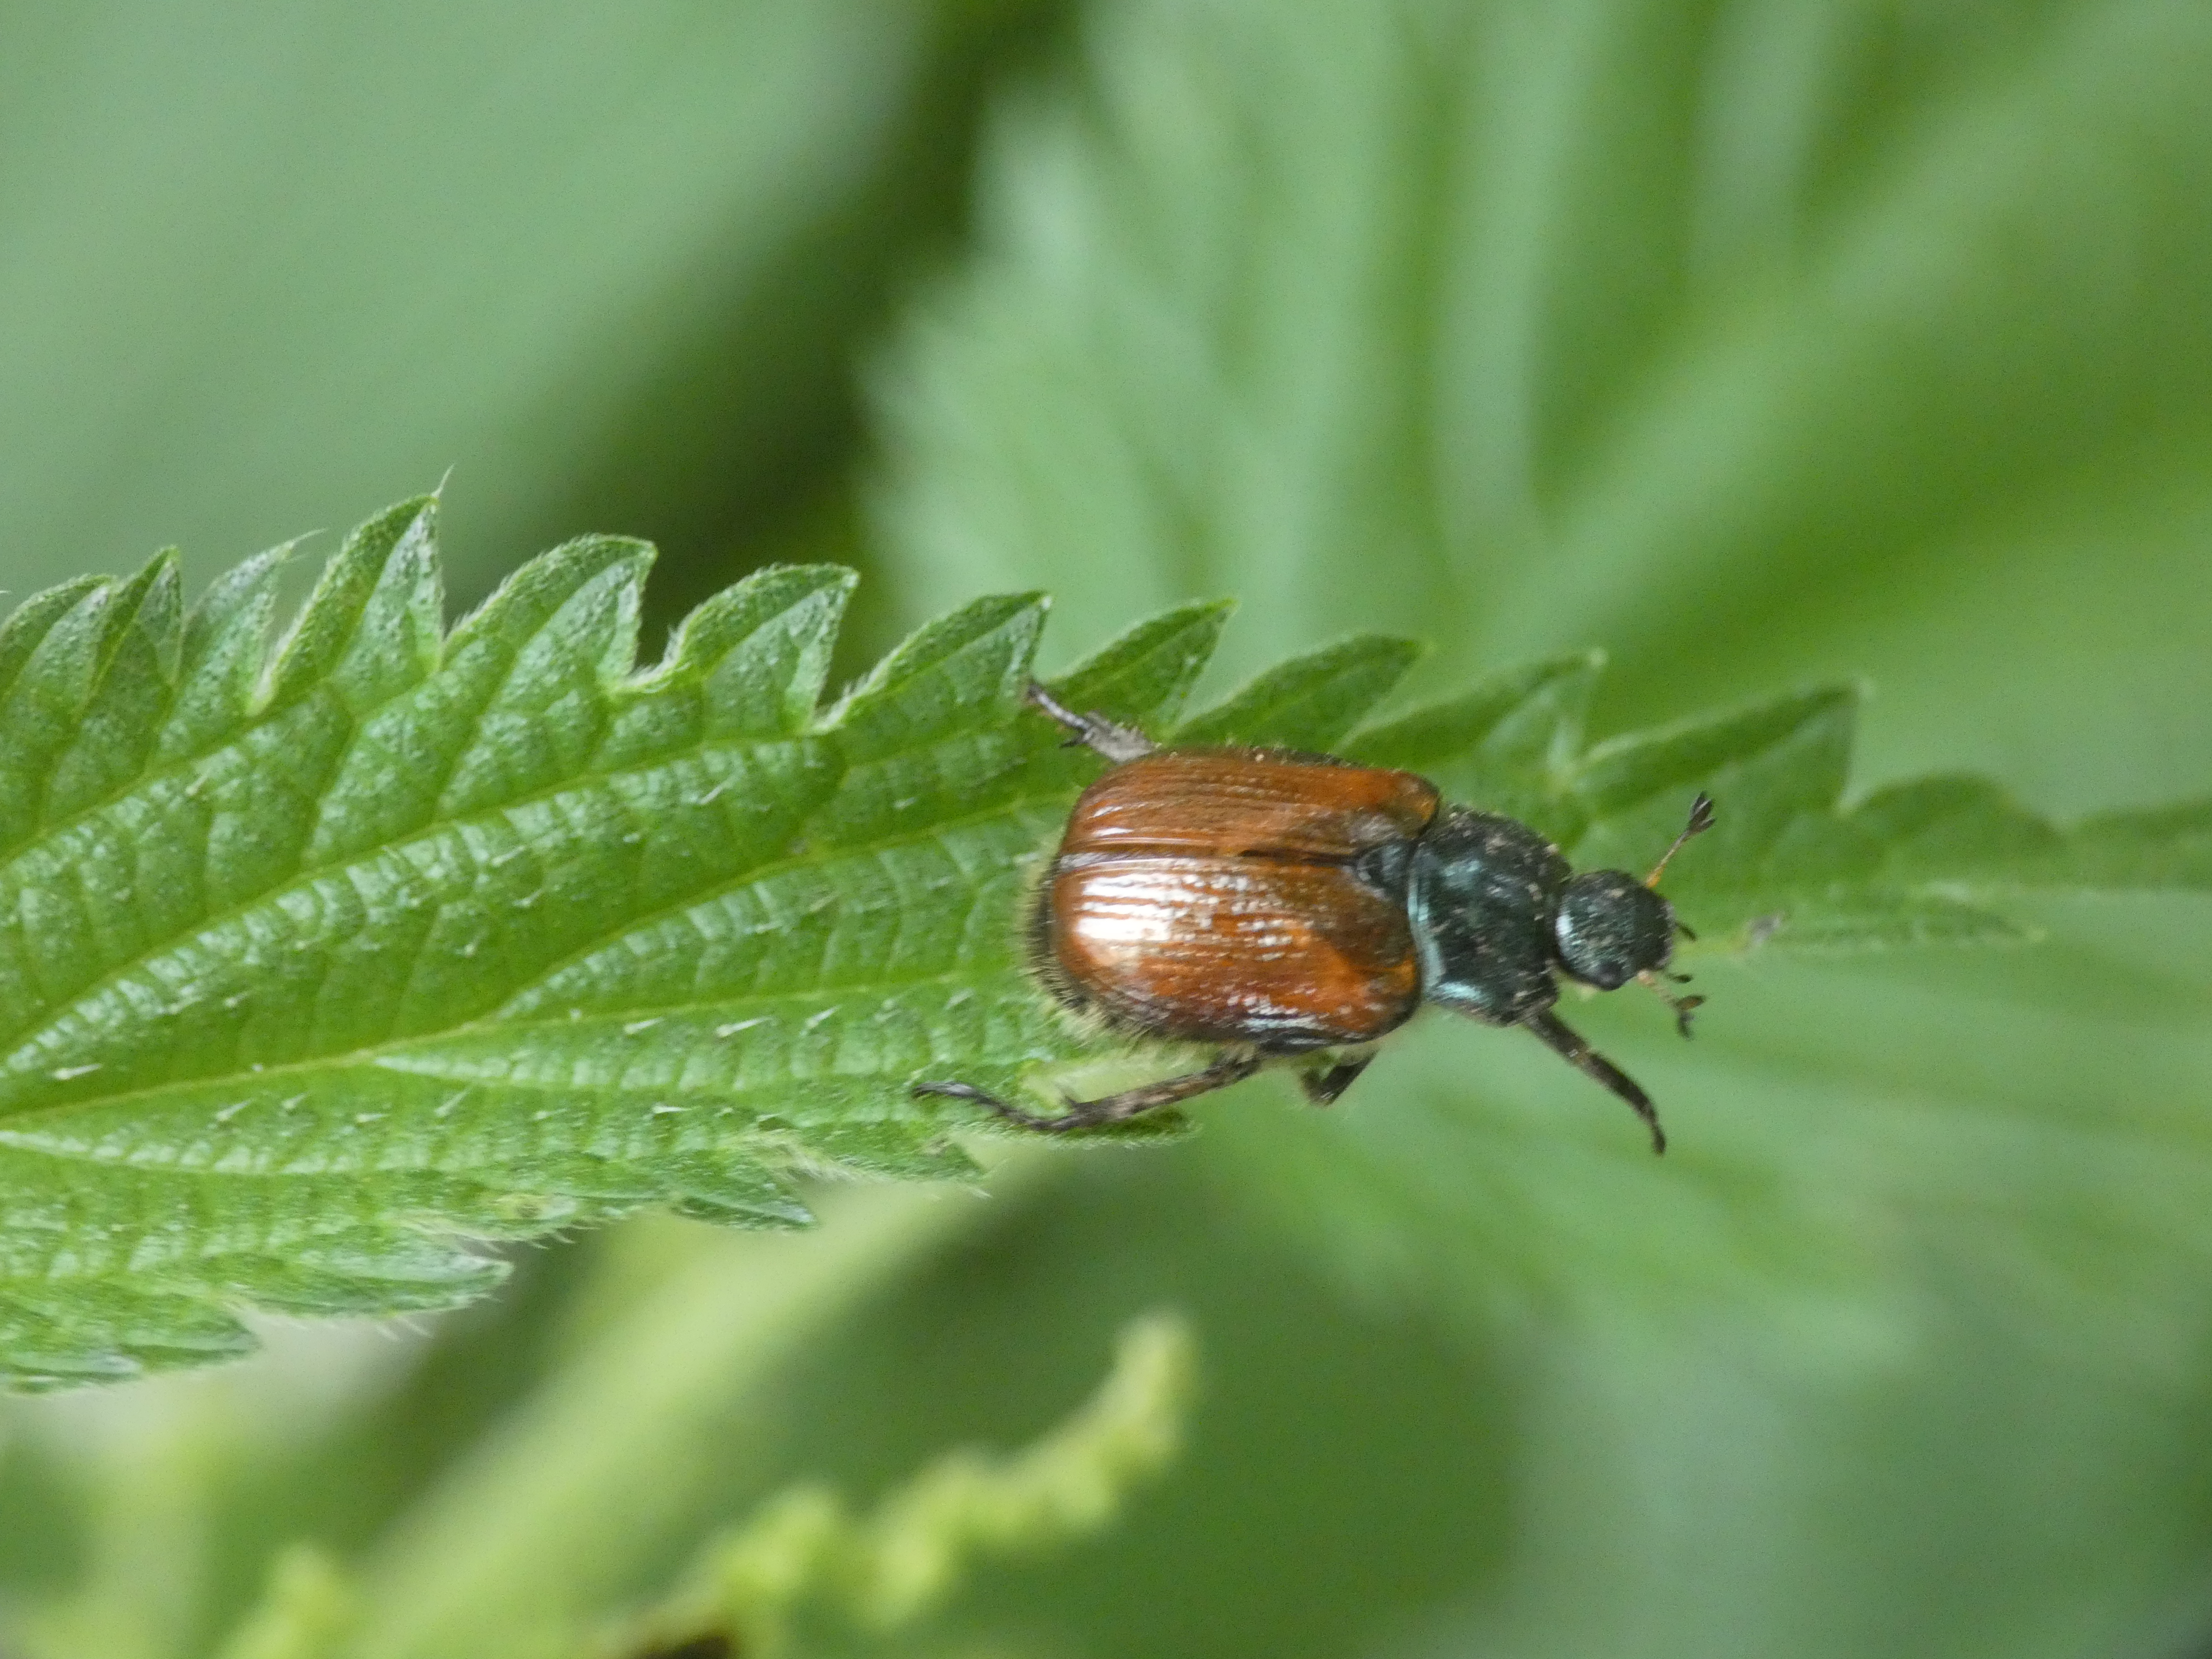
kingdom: Animalia
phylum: Arthropoda
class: Insecta
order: Coleoptera
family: Scarabaeidae
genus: Phyllopertha
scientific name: Phyllopertha horticola
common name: Gåsebille
